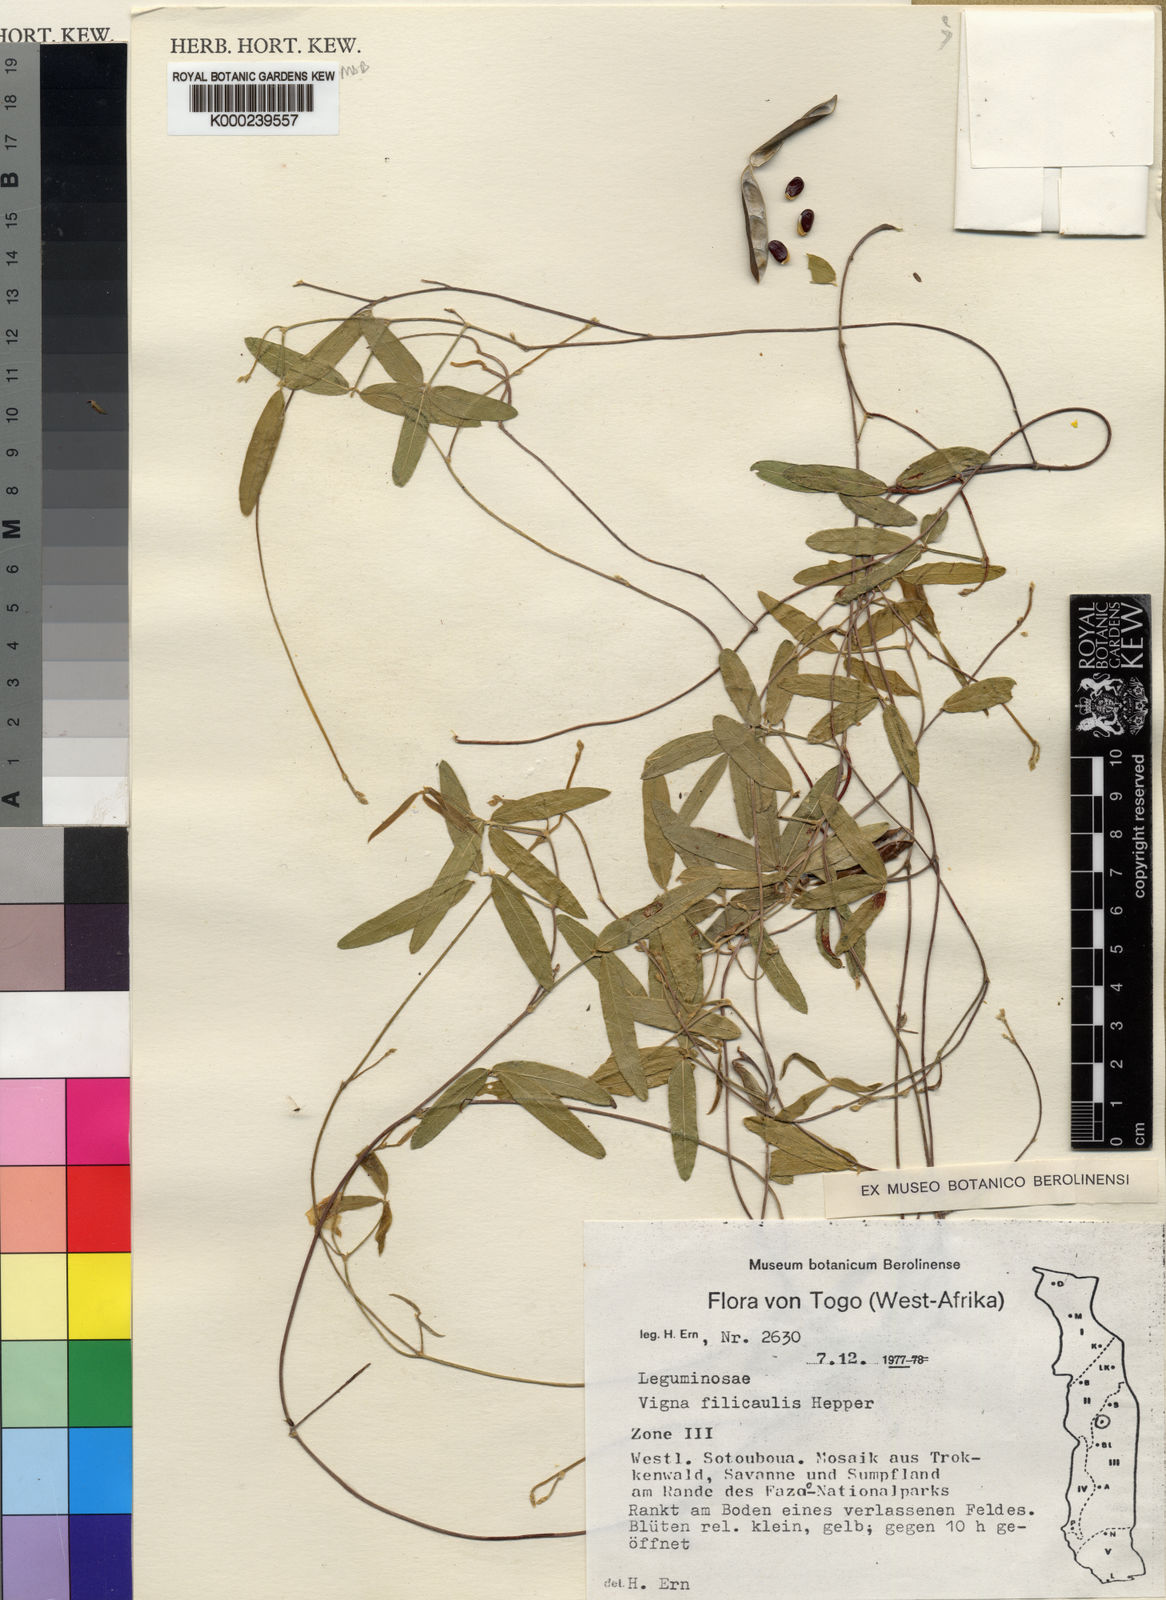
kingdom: Plantae
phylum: Tracheophyta
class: Magnoliopsida
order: Fabales
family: Fabaceae
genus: Vigna
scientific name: Vigna filicaulis
